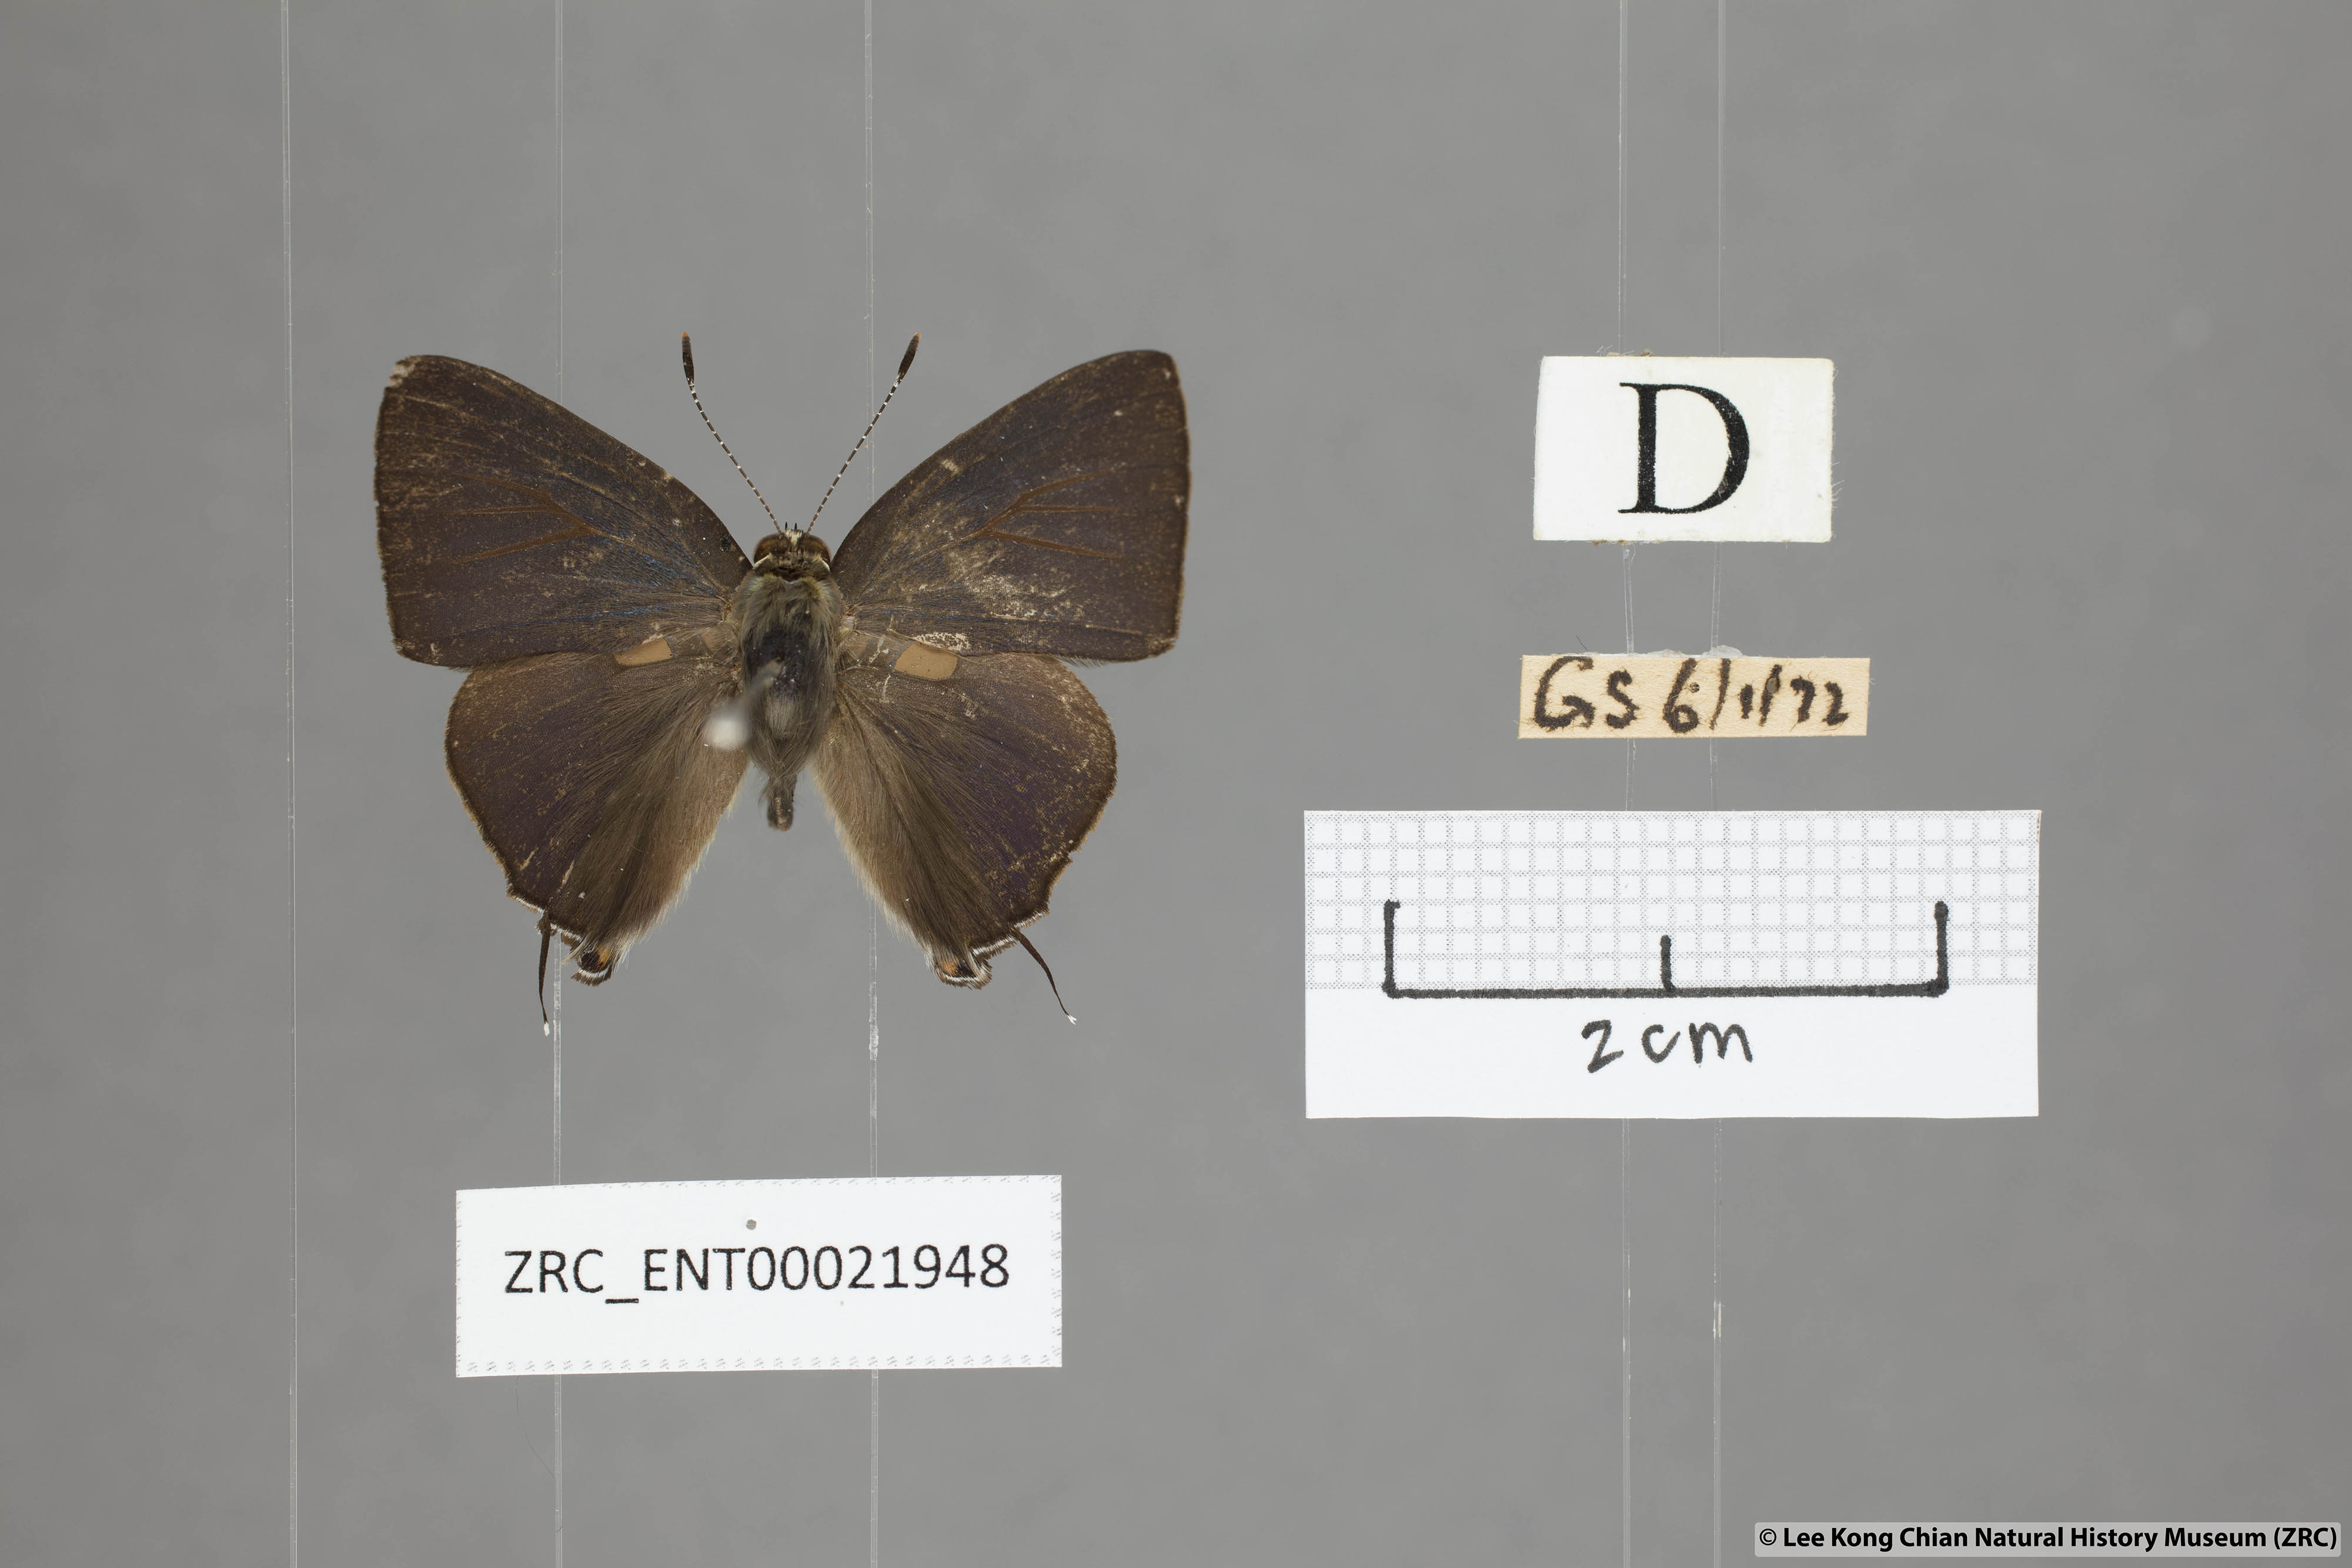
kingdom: Animalia
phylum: Arthropoda
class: Insecta
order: Lepidoptera
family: Lycaenidae
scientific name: Lycaenidae
